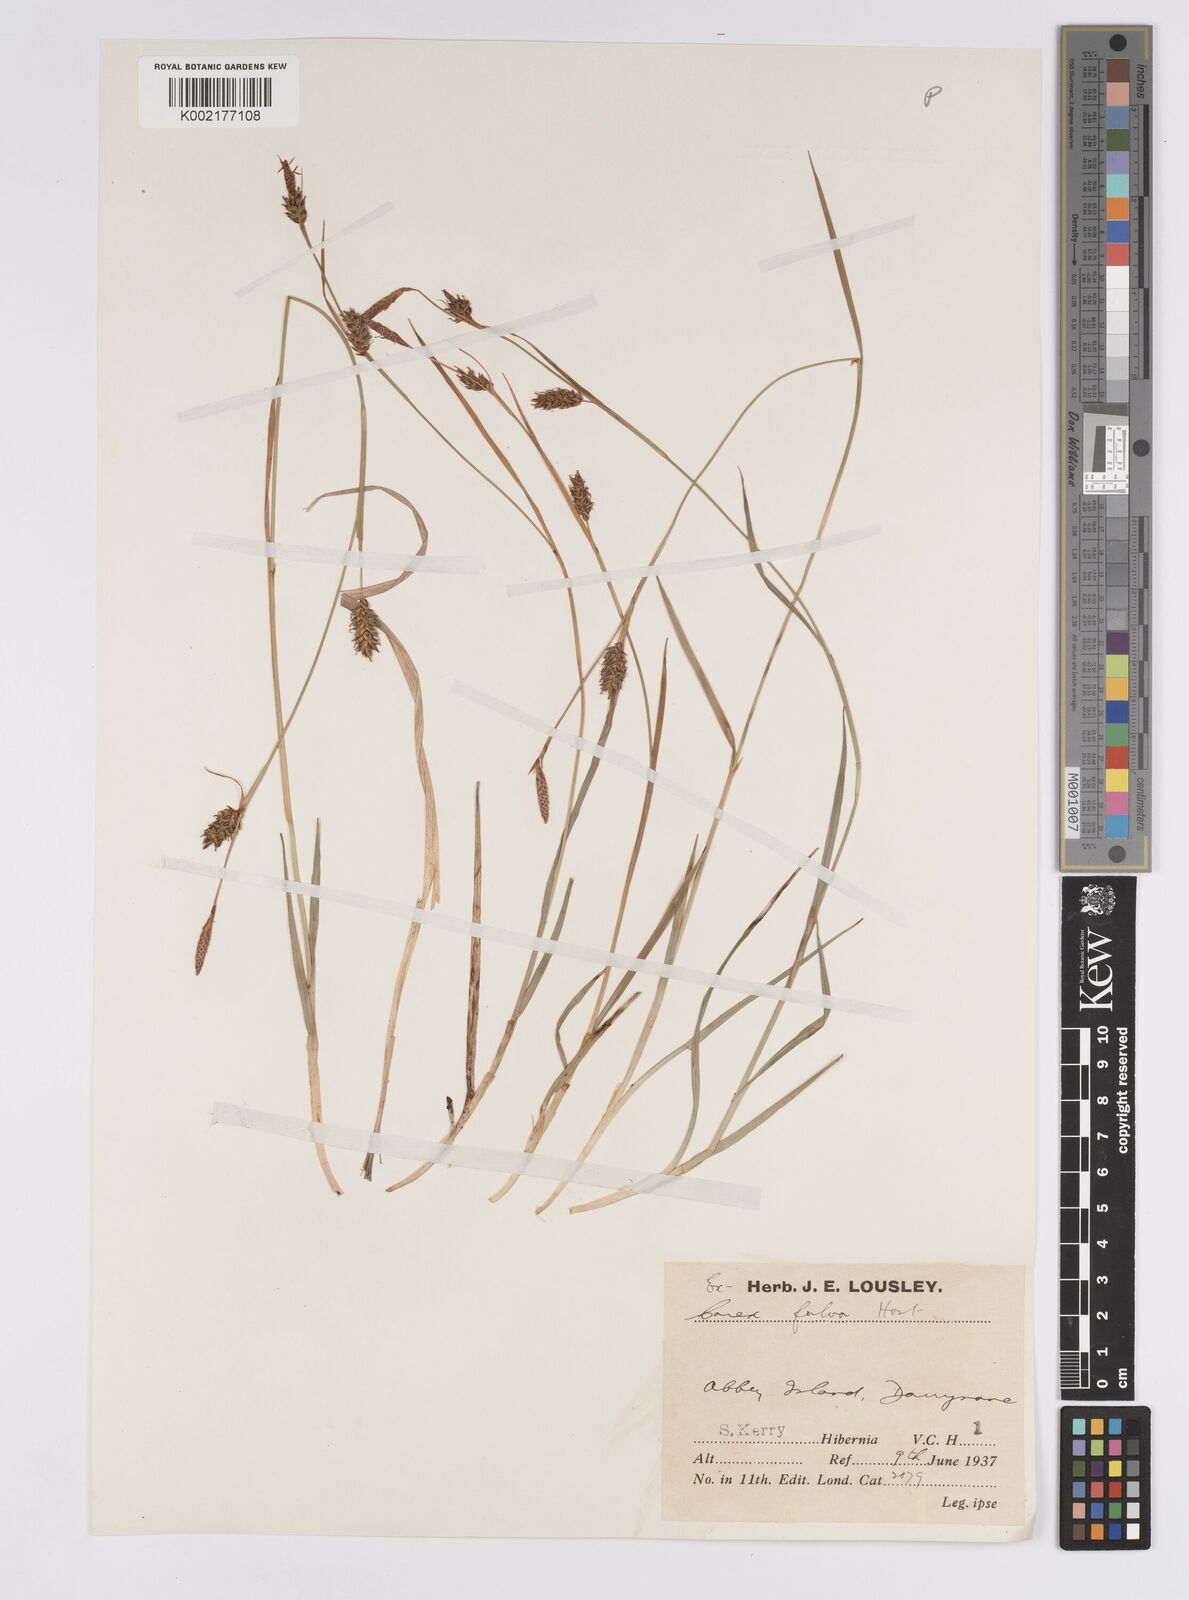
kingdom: Plantae
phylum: Tracheophyta
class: Liliopsida
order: Poales
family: Cyperaceae
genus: Carex
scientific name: Carex hostiana
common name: Tawny sedge
